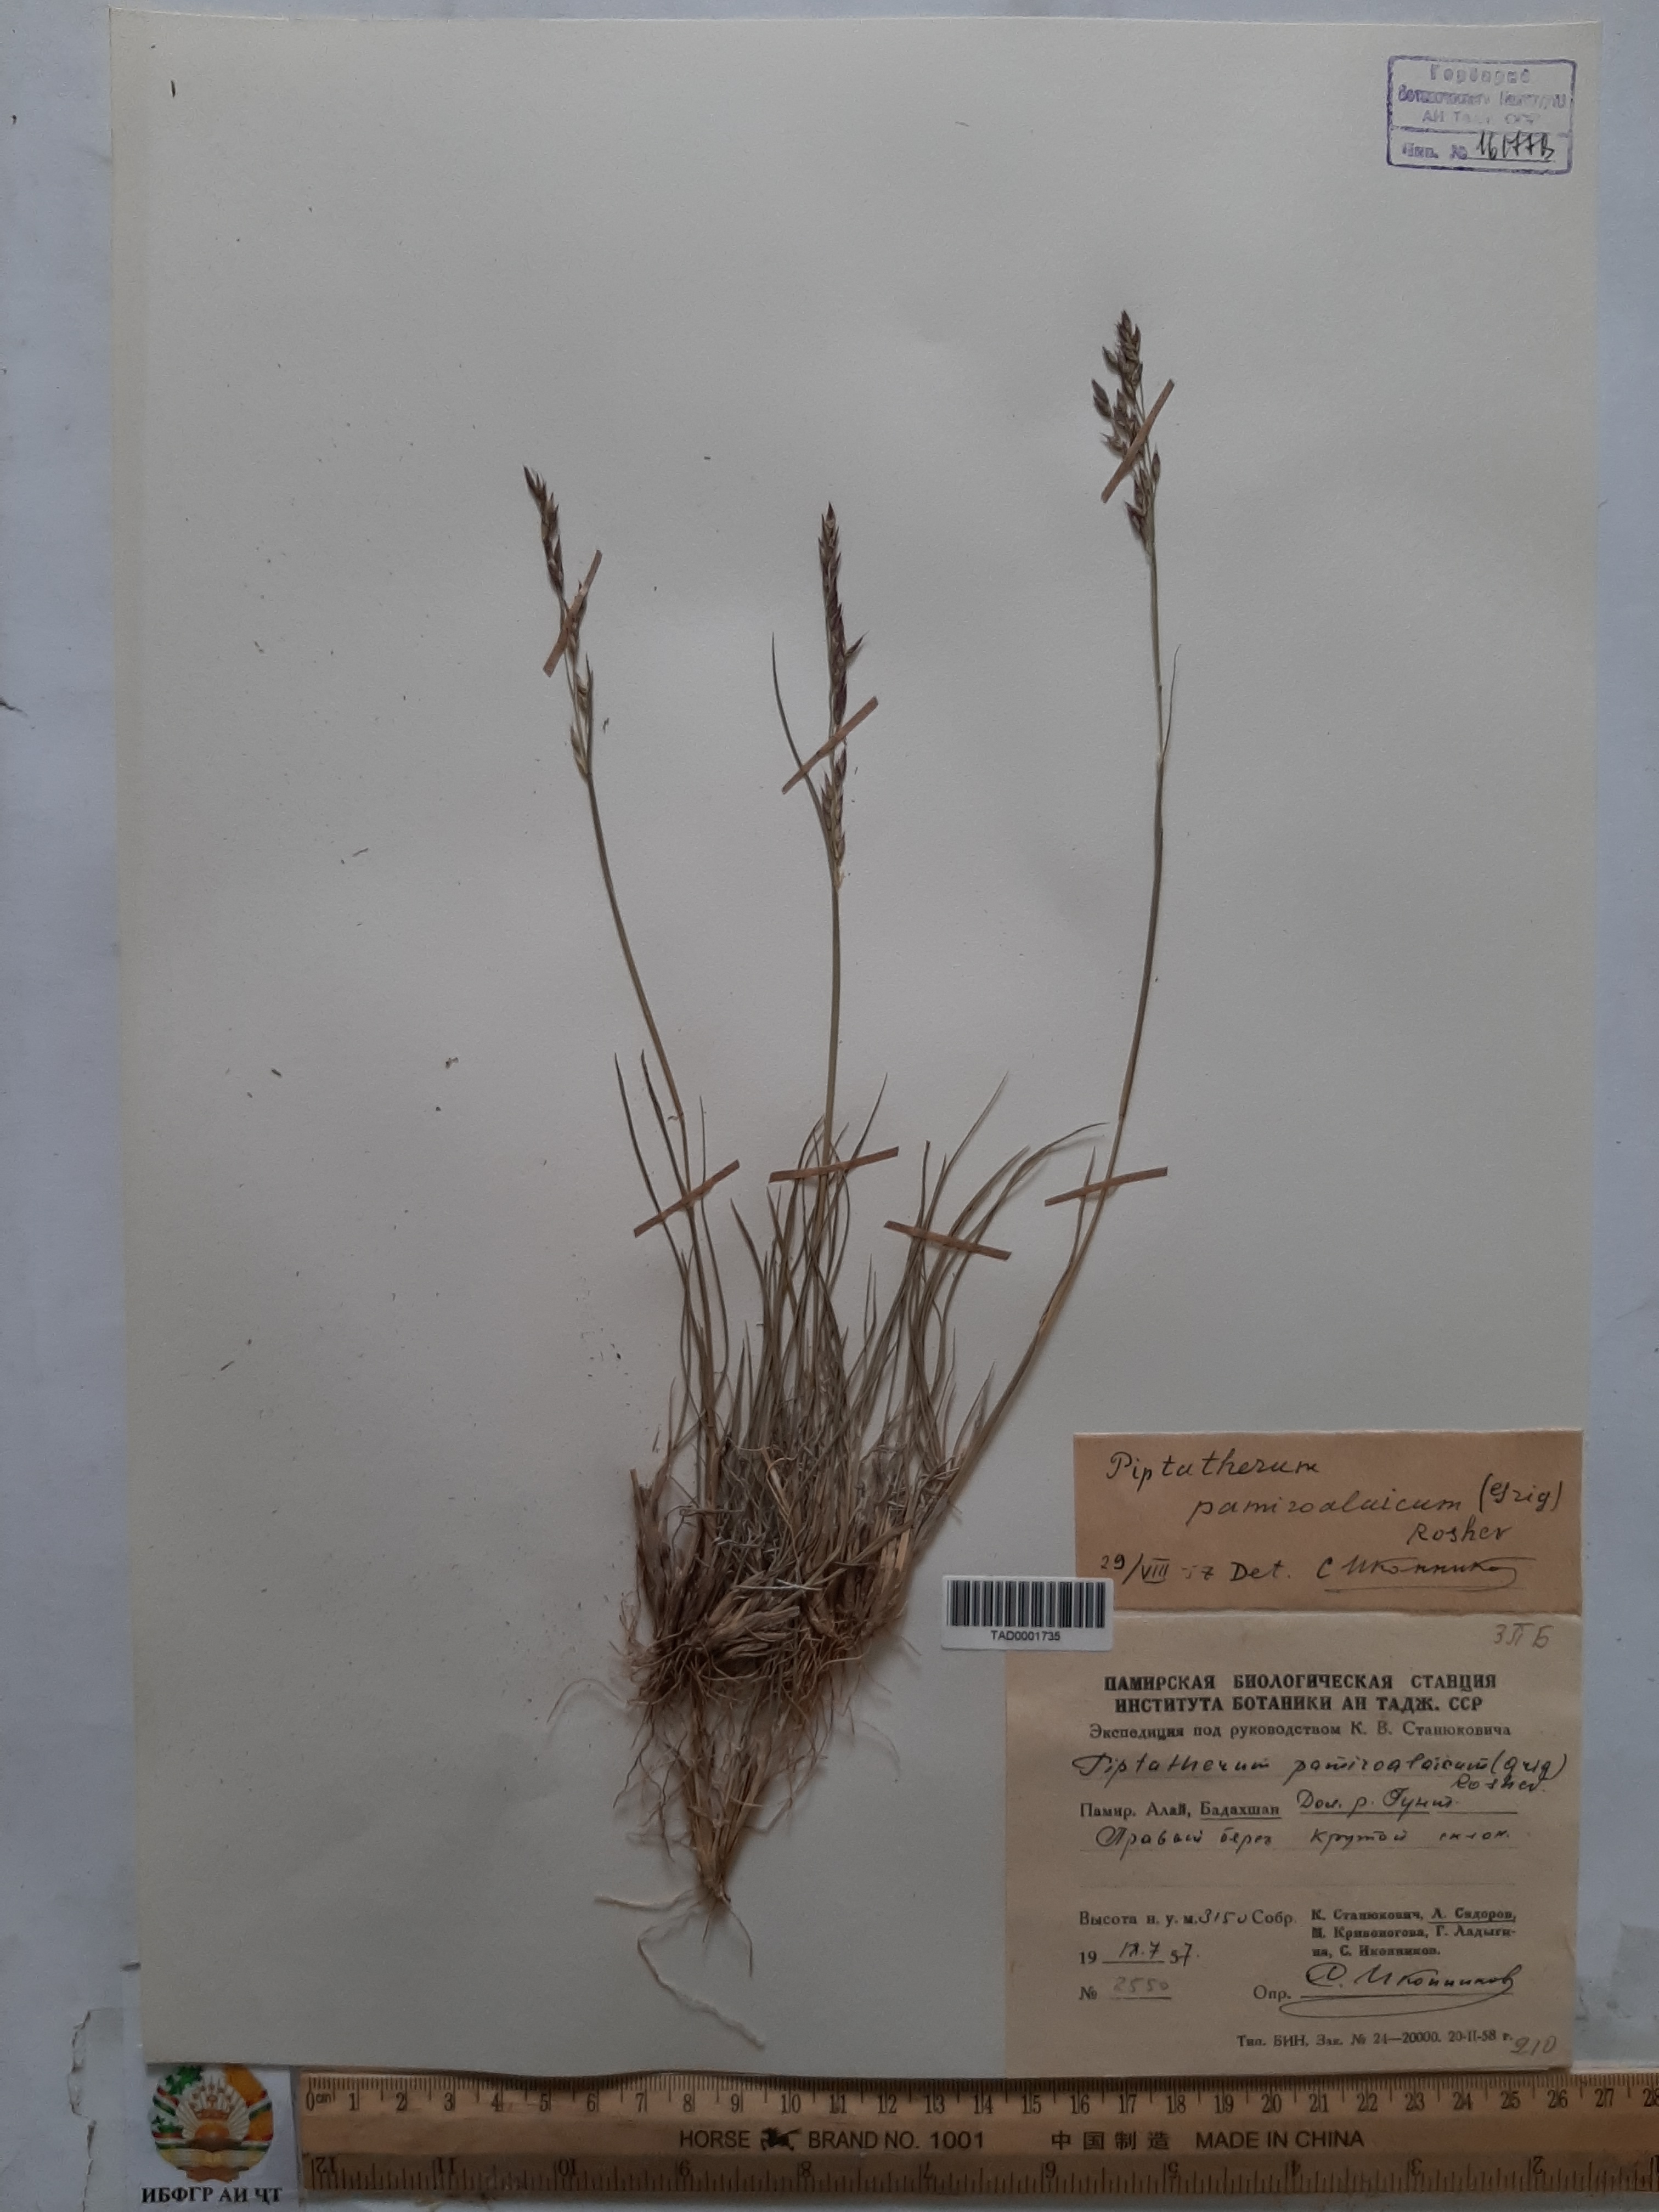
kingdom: Plantae
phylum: Tracheophyta
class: Liliopsida
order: Poales
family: Poaceae
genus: Piptatherum
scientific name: Piptatherum pamiralaicum
